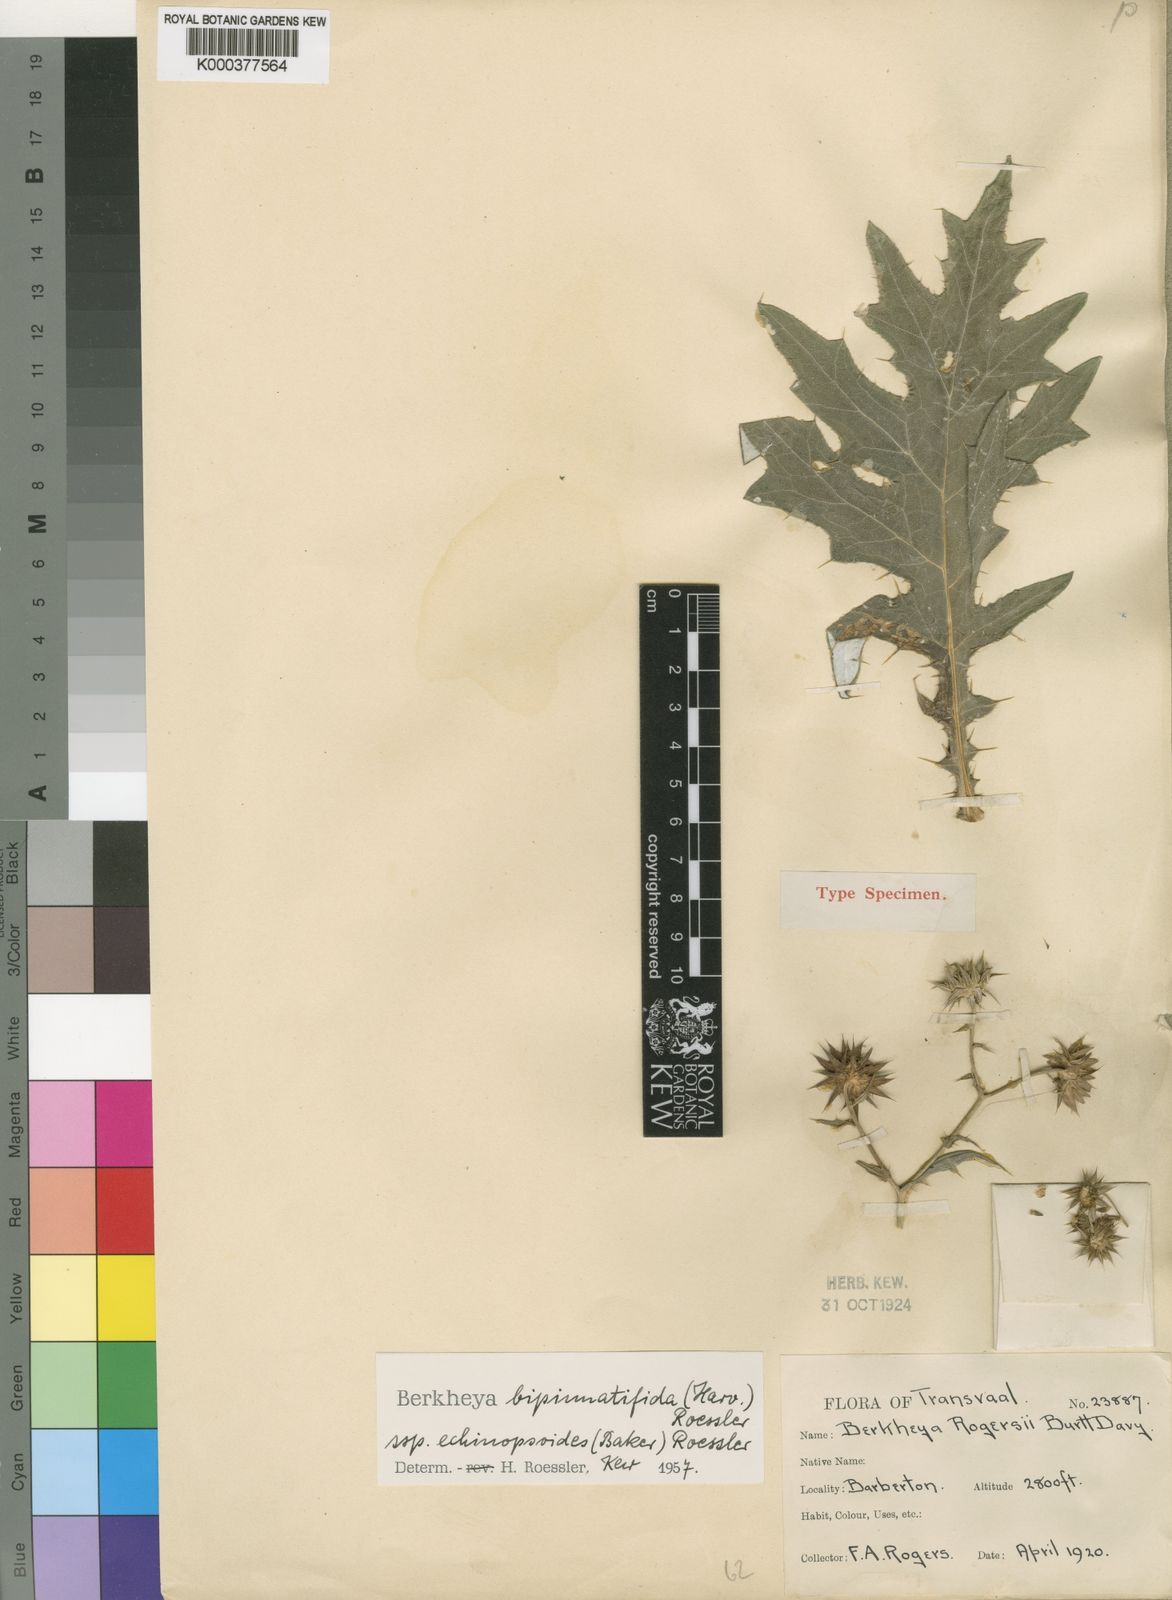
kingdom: Plantae
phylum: Tracheophyta
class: Magnoliopsida
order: Asterales
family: Asteraceae
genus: Berkheya
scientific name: Berkheya bipinnatifida
